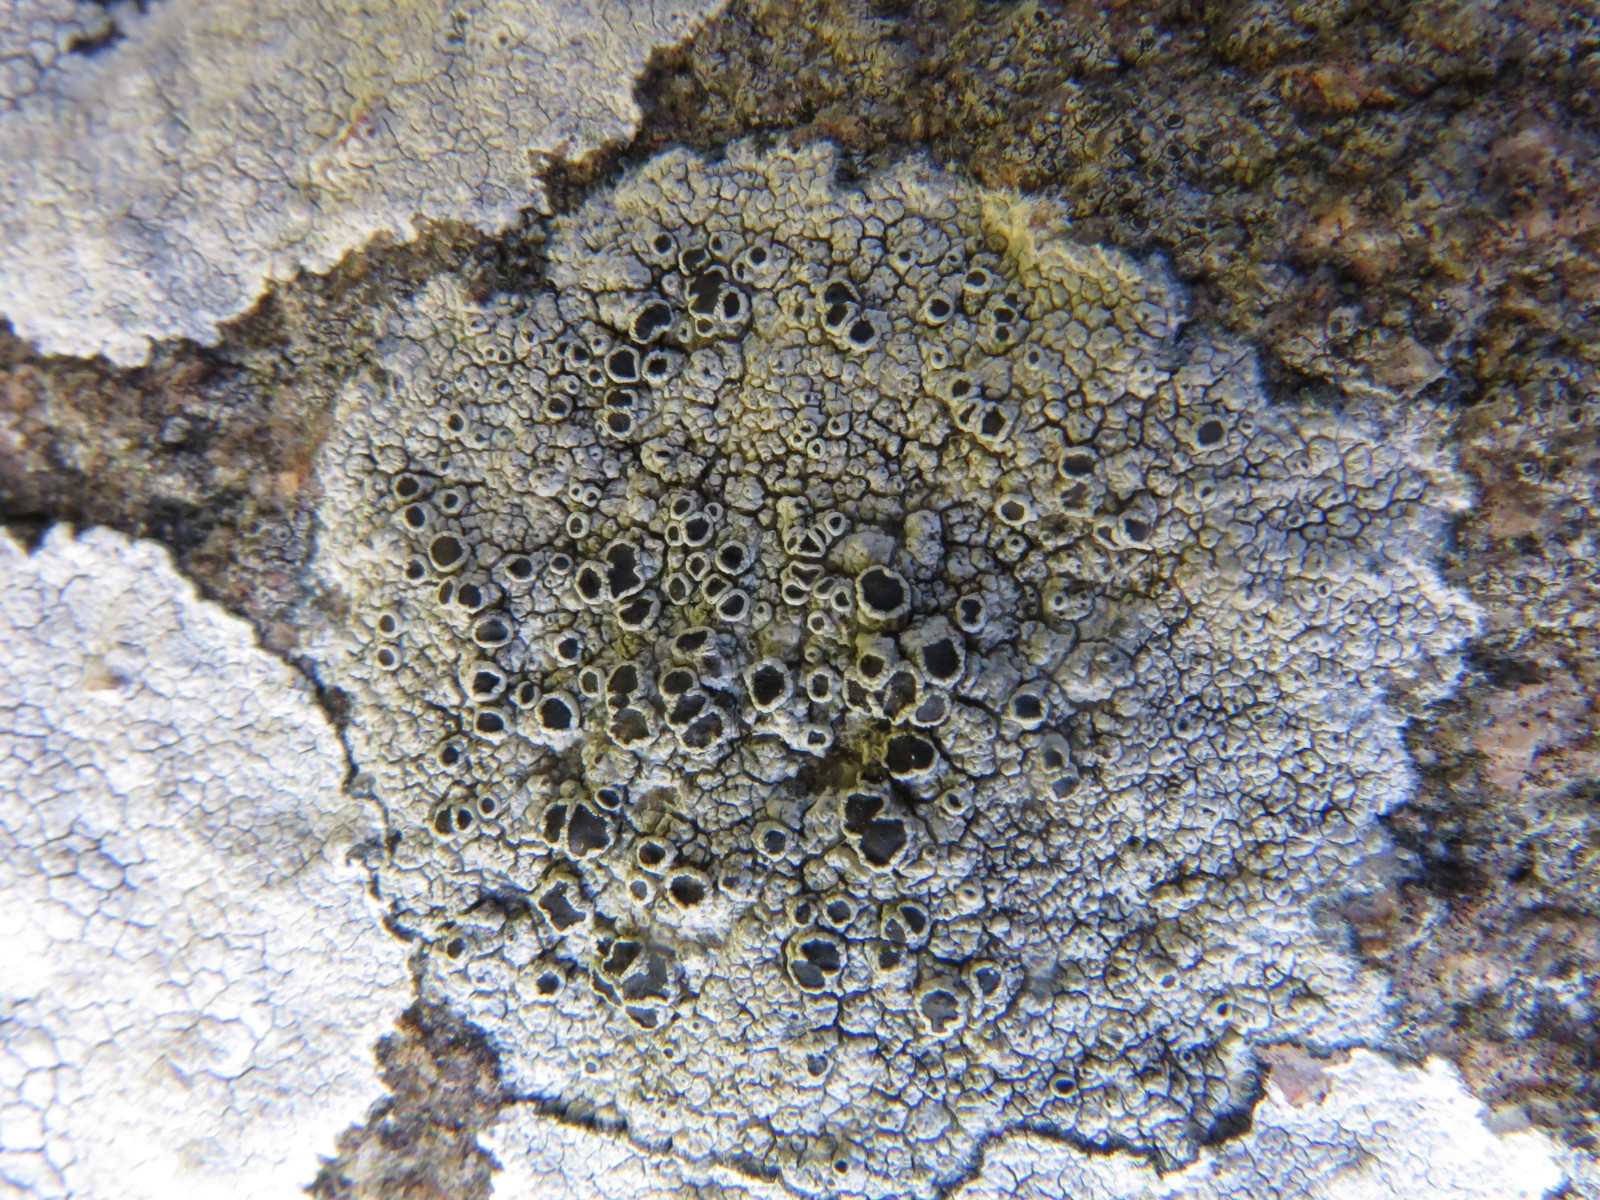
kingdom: Fungi
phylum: Ascomycota
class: Lecanoromycetes
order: Lecanorales
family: Tephromelataceae
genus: Tephromela
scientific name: Tephromela atra
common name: sortfrugtet kantskivelav
